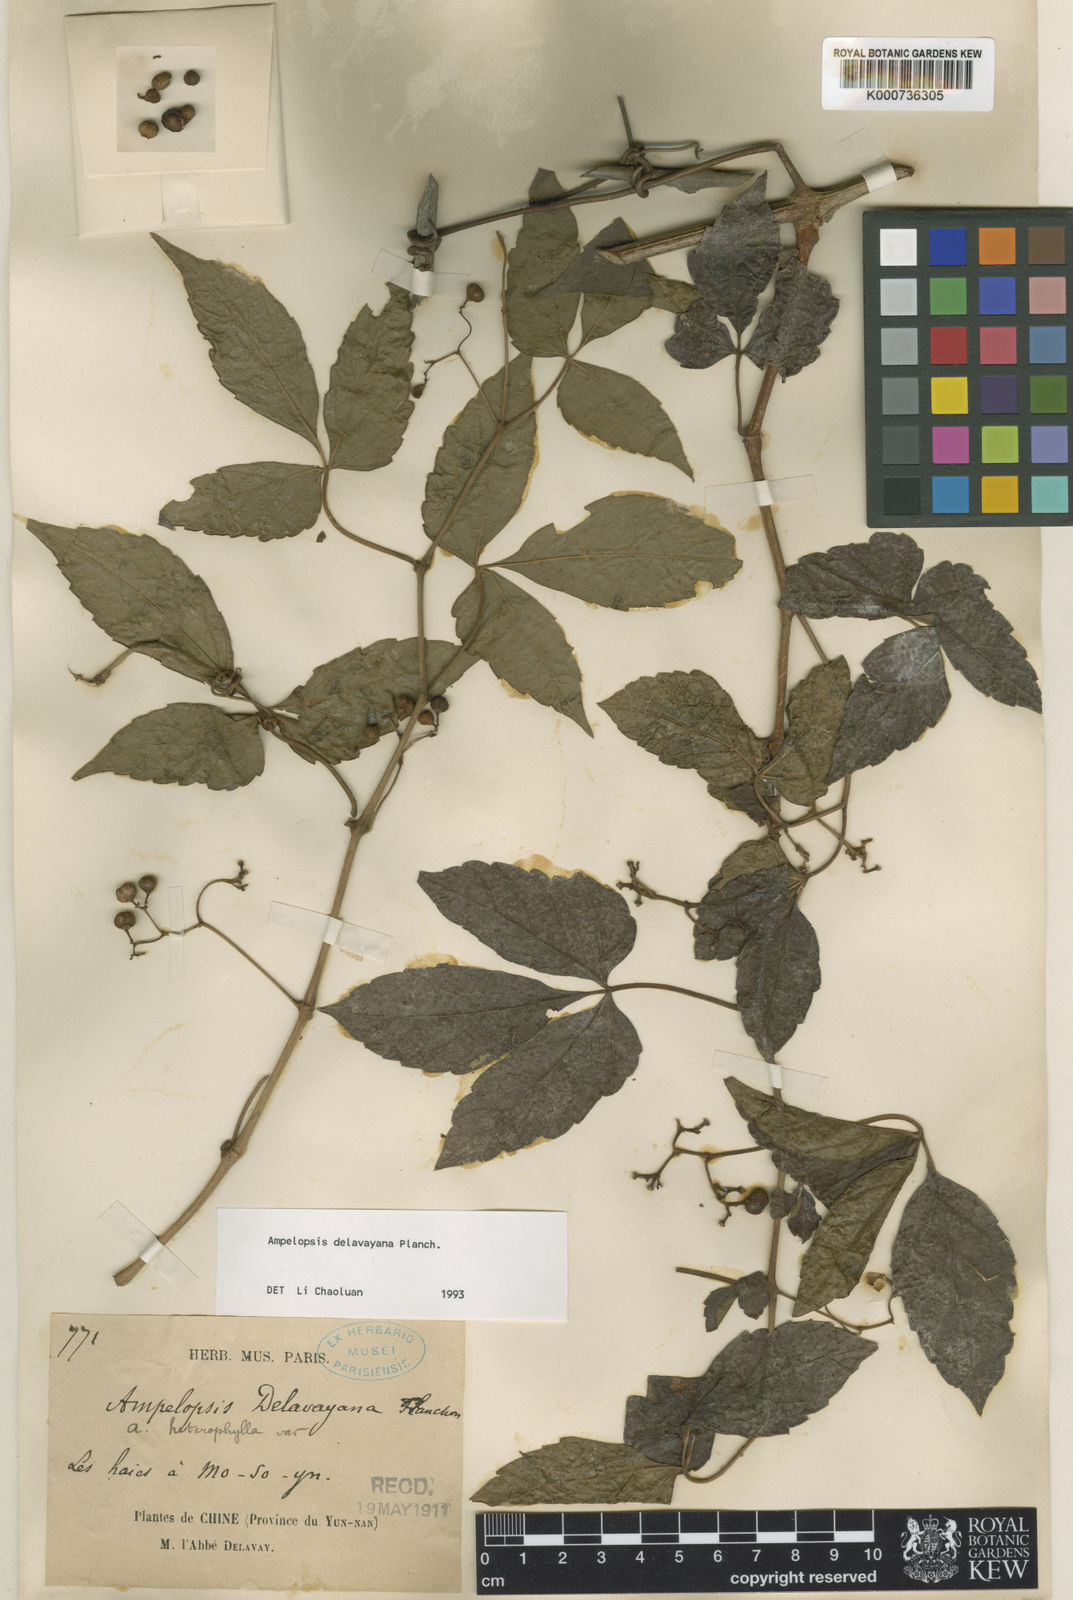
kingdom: Plantae
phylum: Tracheophyta
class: Magnoliopsida
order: Vitales
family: Vitaceae
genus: Ampelopsis
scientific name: Ampelopsis delavayana
